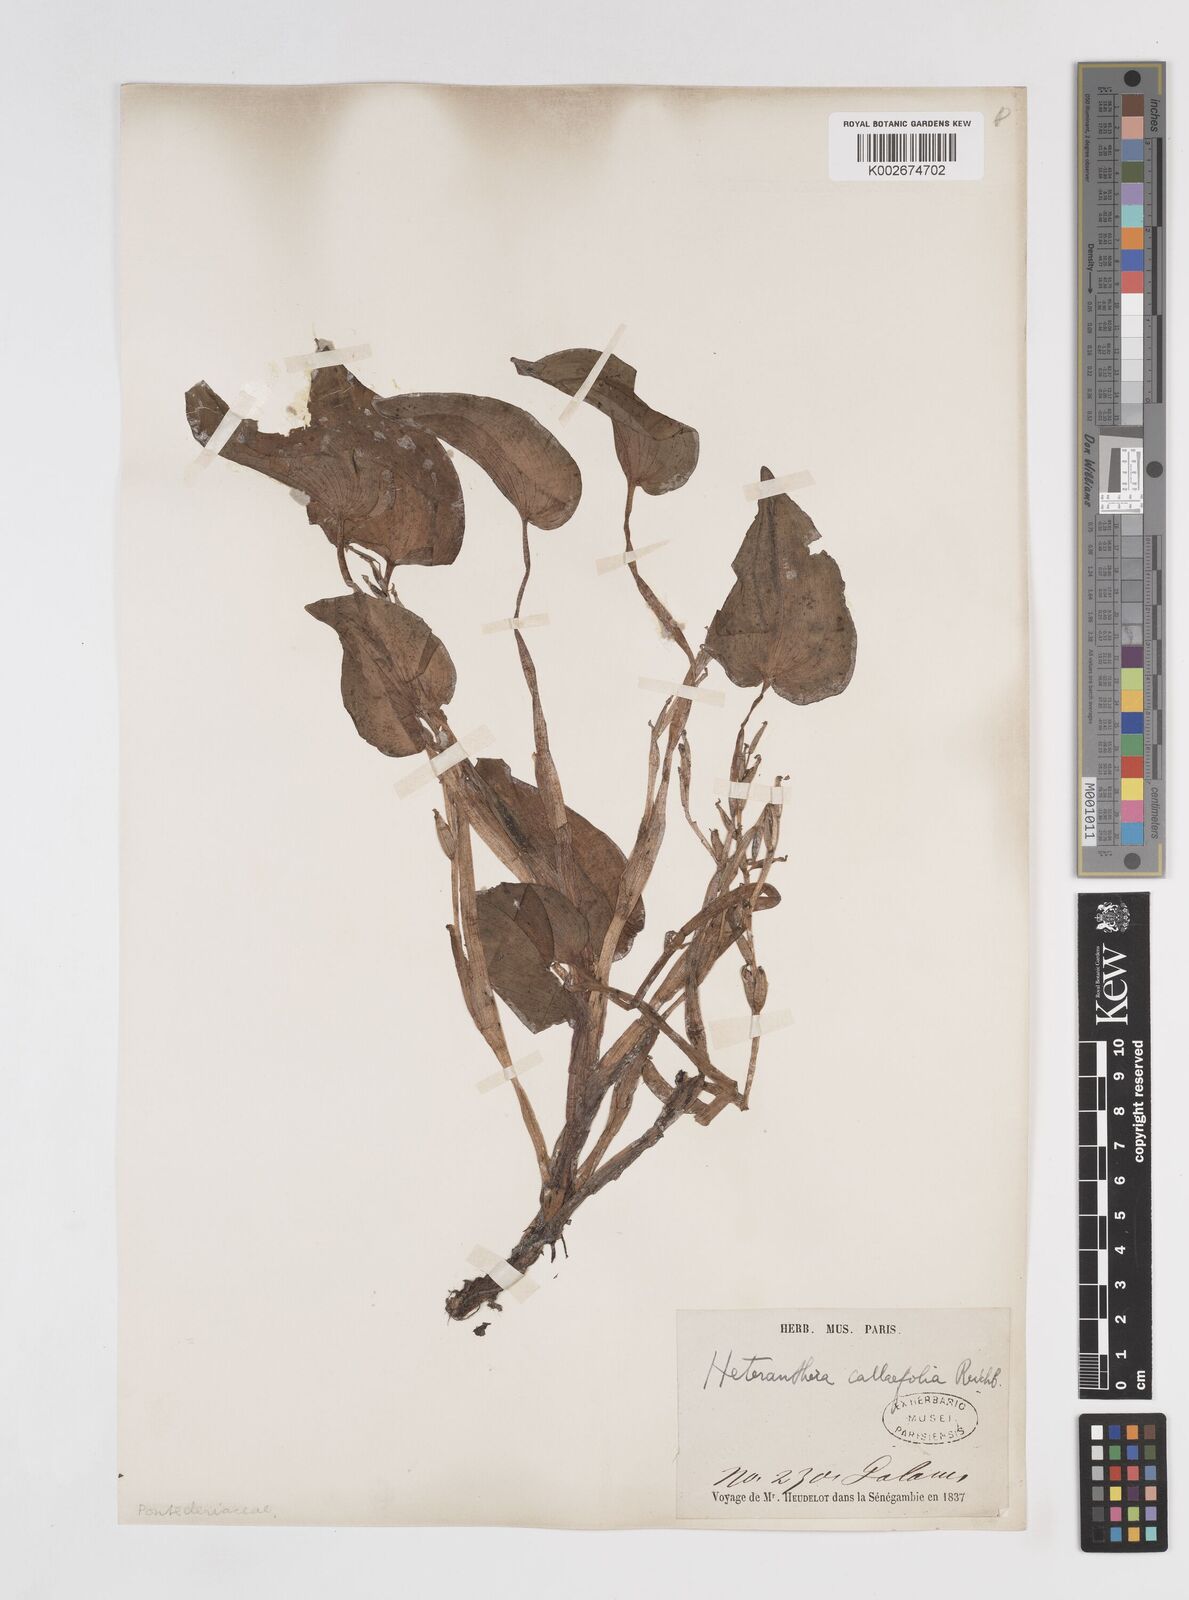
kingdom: Plantae
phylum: Tracheophyta
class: Liliopsida
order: Commelinales
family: Pontederiaceae
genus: Heteranthera
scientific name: Heteranthera callifolia
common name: Mud plantain
